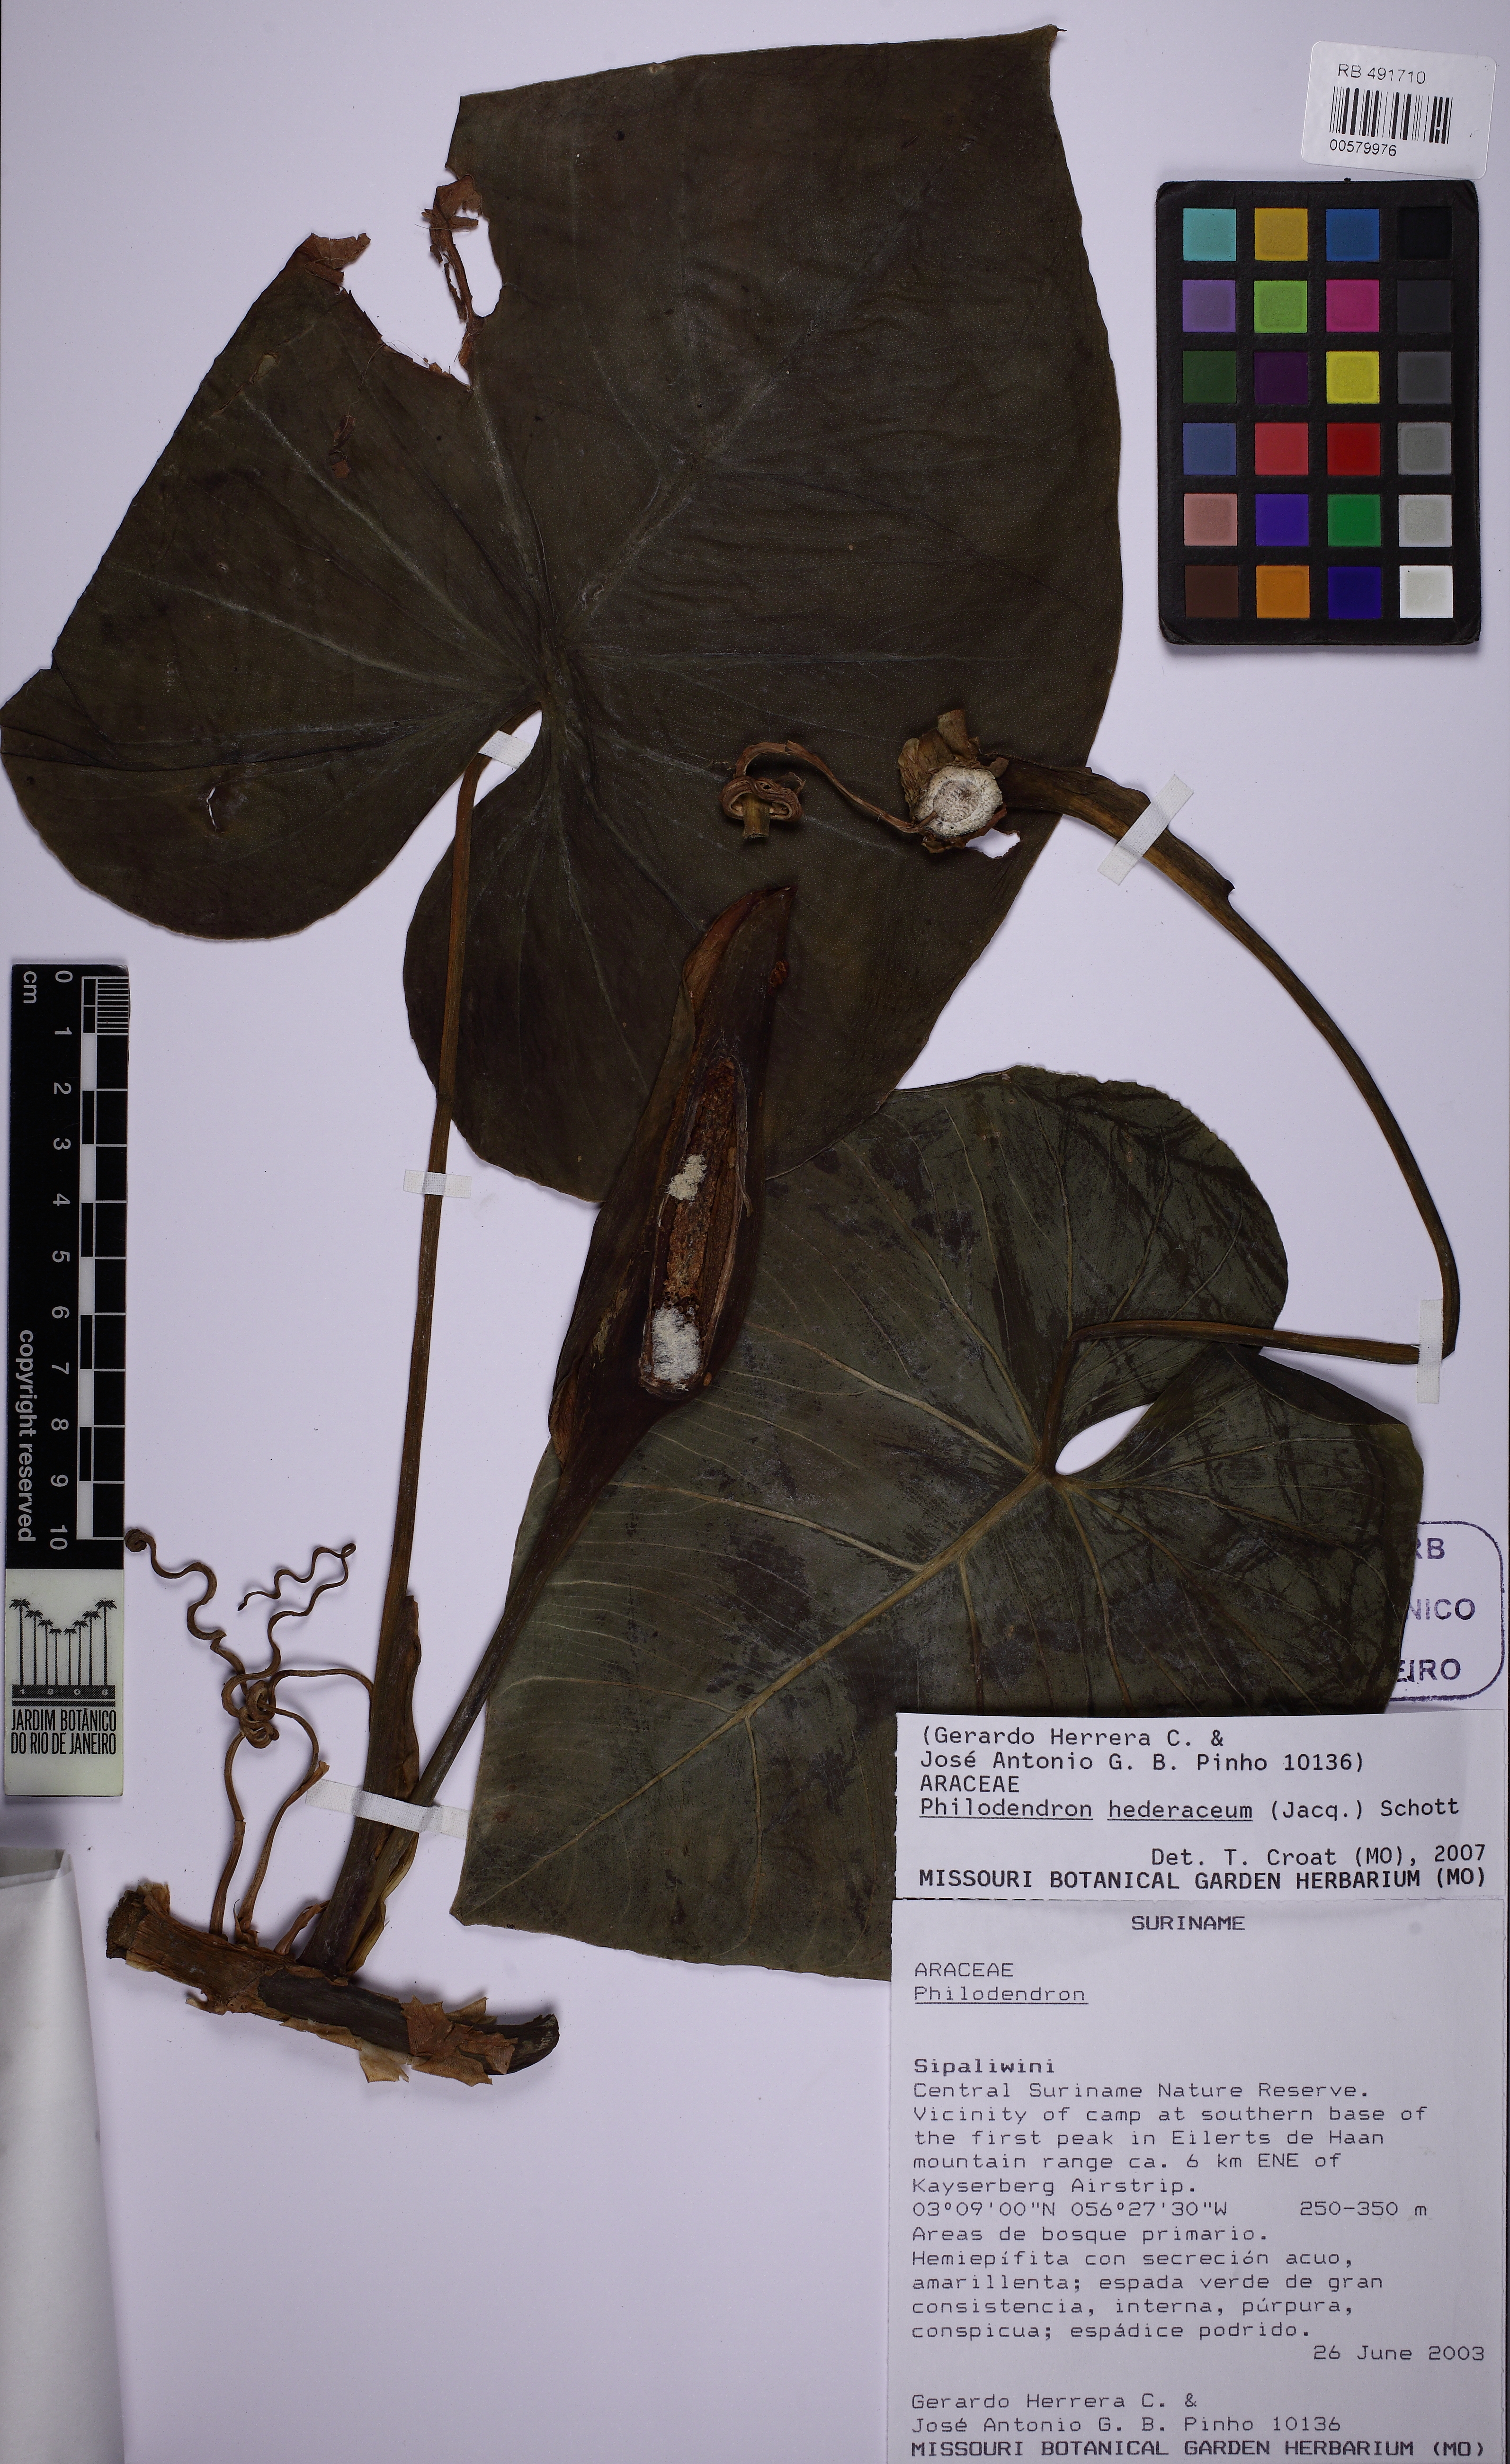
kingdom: Plantae
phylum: Tracheophyta
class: Liliopsida
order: Alismatales
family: Araceae
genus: Philodendron
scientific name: Philodendron hederaceum
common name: Vilevine
